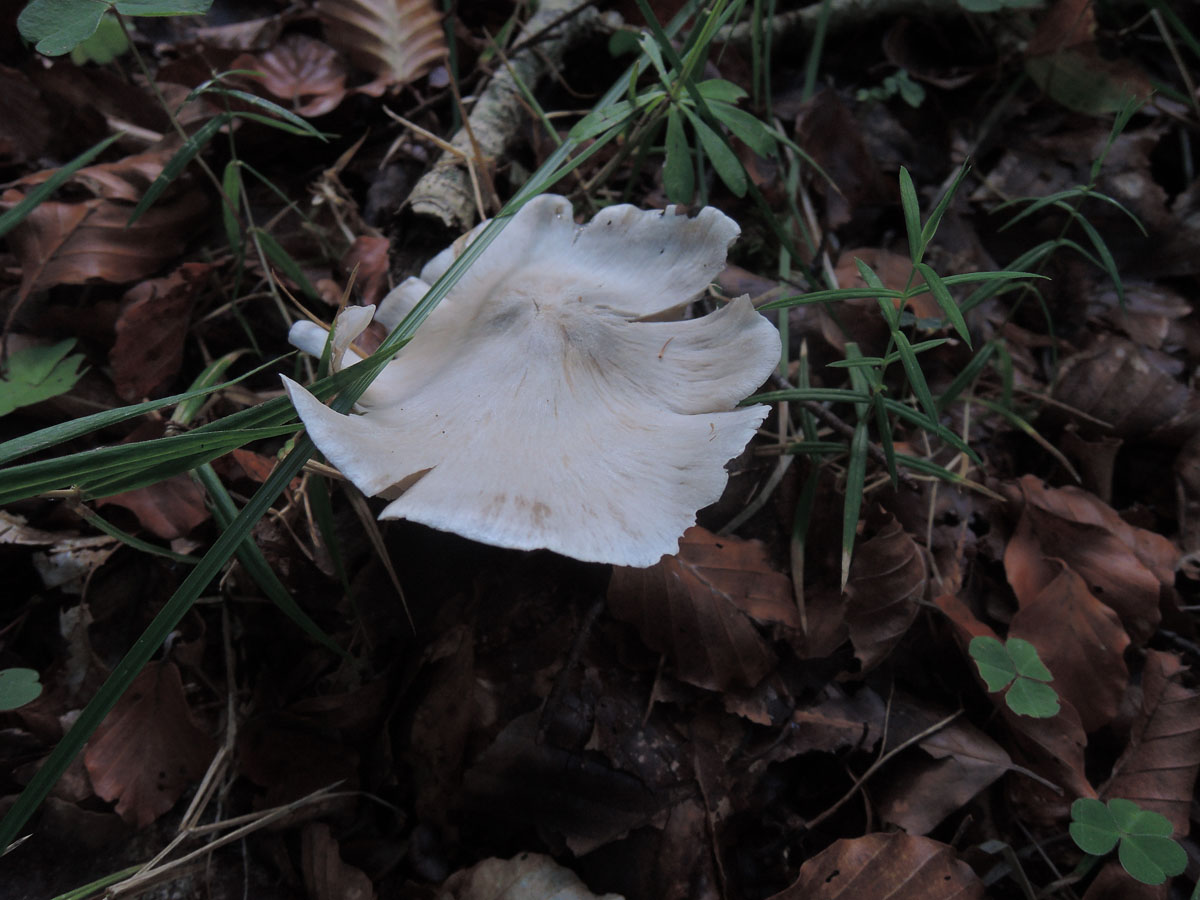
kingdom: Fungi
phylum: Basidiomycota
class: Agaricomycetes
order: Agaricales
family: Tricholomataceae
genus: Tricholoma
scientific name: Tricholoma umbonatum
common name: puklet ridderhat
